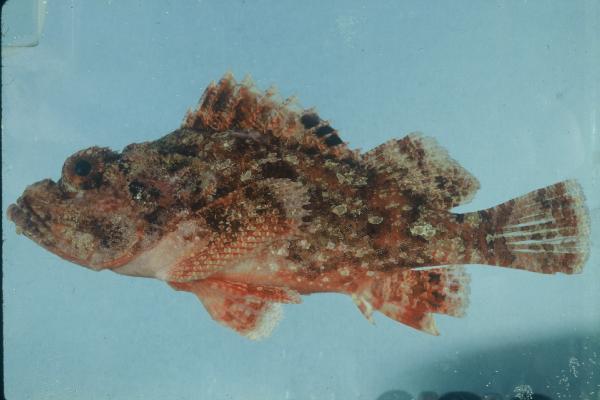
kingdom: Animalia
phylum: Chordata
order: Scorpaeniformes
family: Scorpaenidae
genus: Scorpaenopsis
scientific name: Scorpaenopsis
